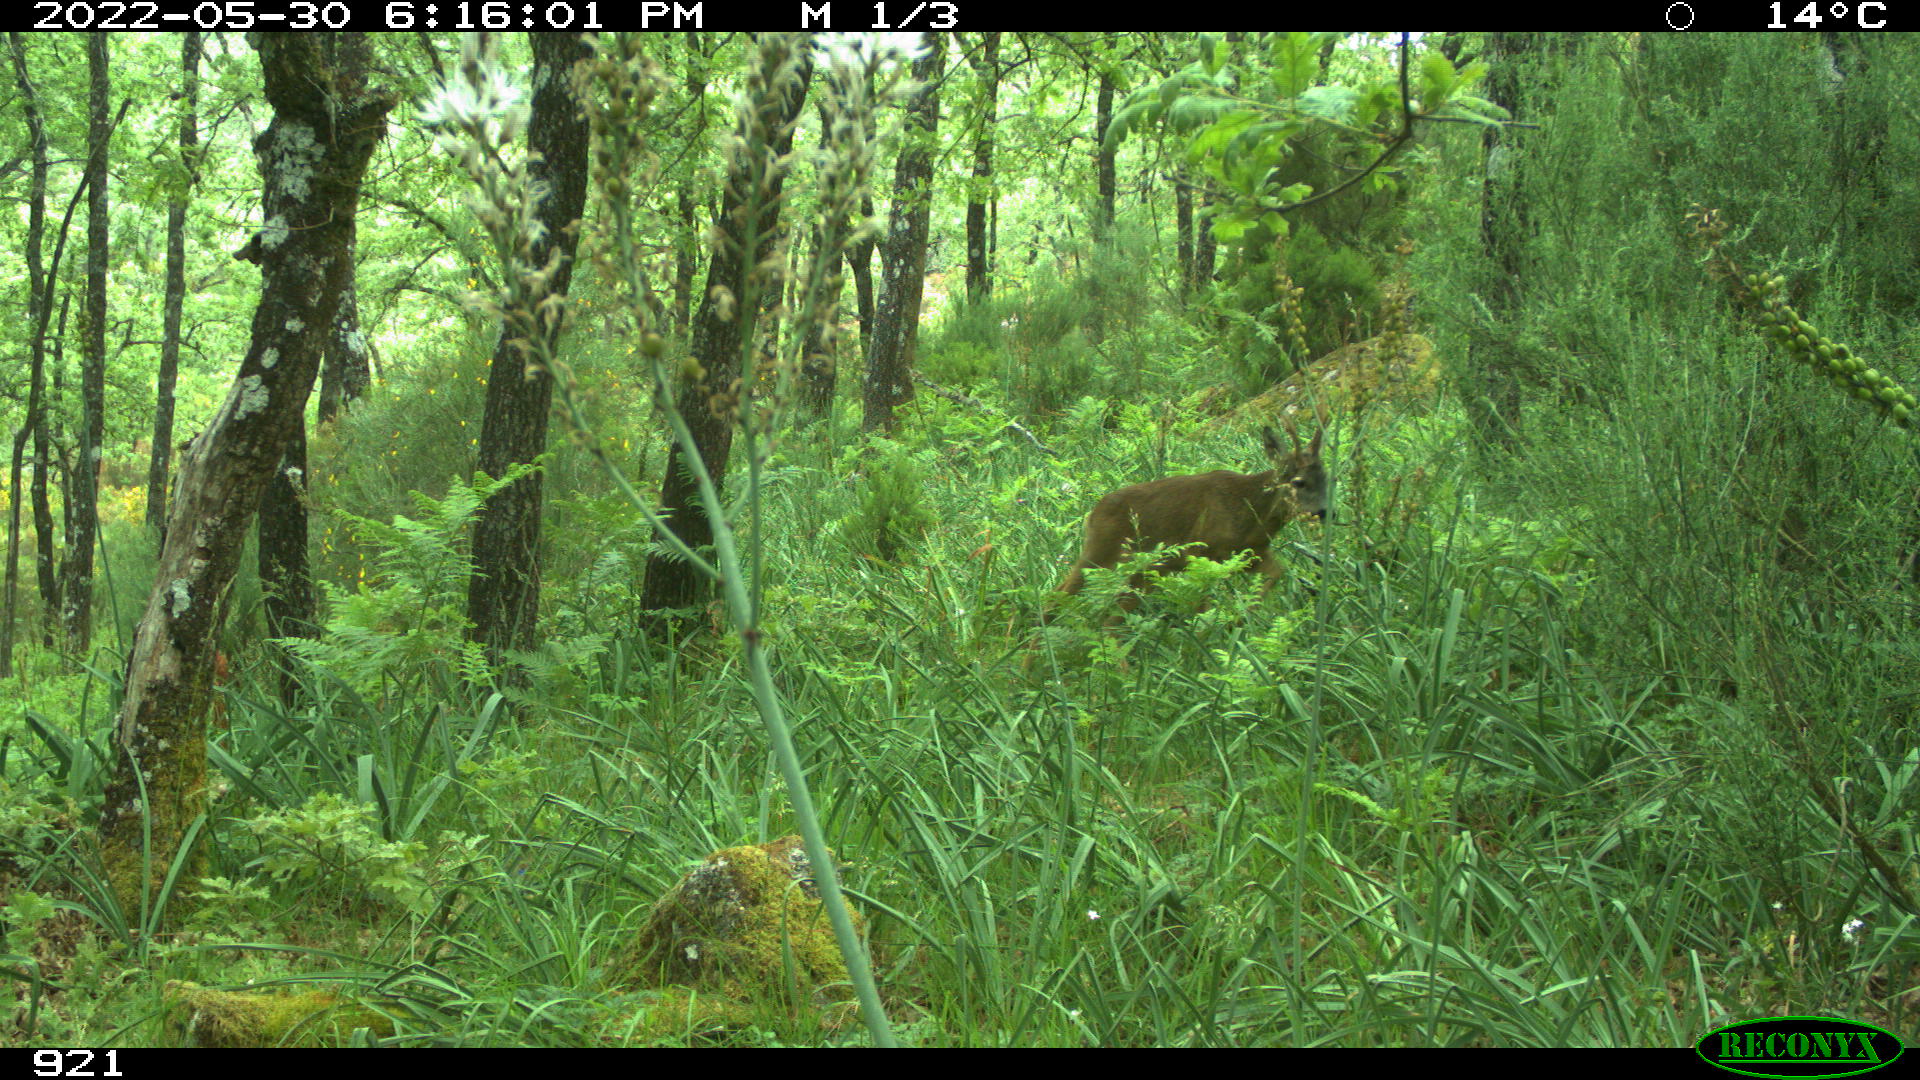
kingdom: Animalia
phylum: Chordata
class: Mammalia
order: Artiodactyla
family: Cervidae
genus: Capreolus
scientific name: Capreolus capreolus
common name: Western roe deer
